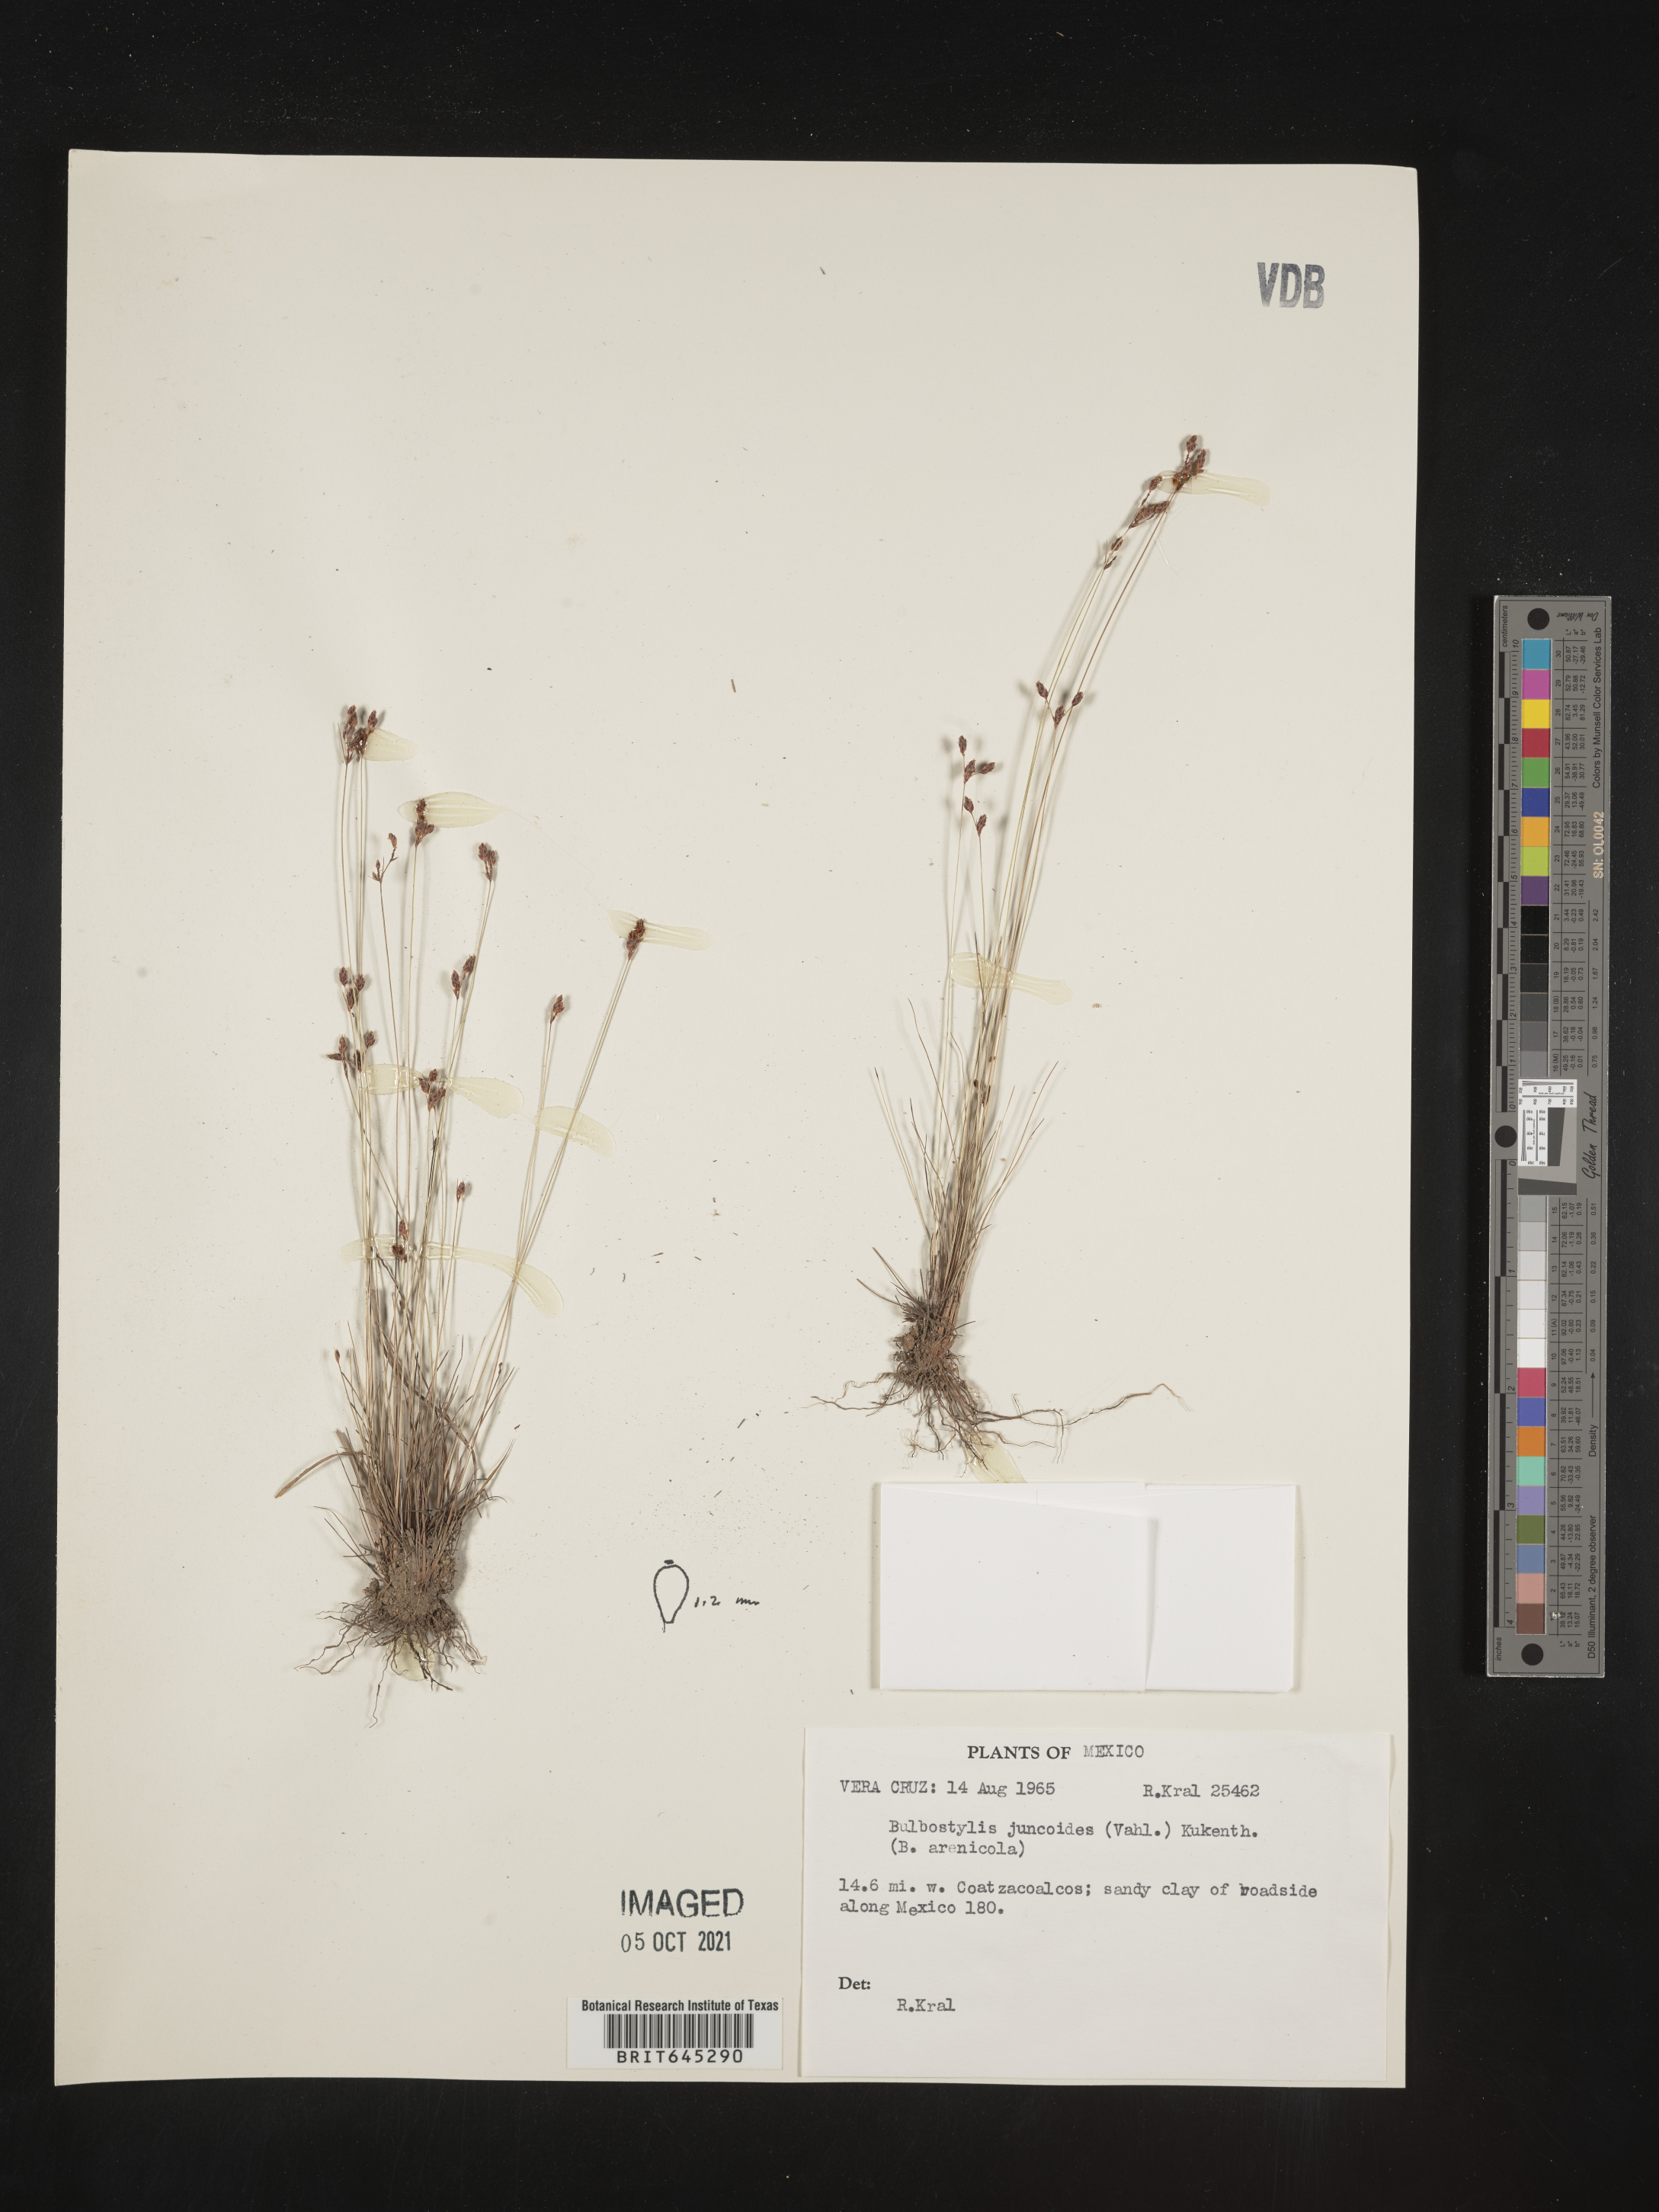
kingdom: Plantae
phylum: Tracheophyta
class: Liliopsida
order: Poales
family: Cyperaceae
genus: Bulbostylis
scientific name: Bulbostylis juncoides
